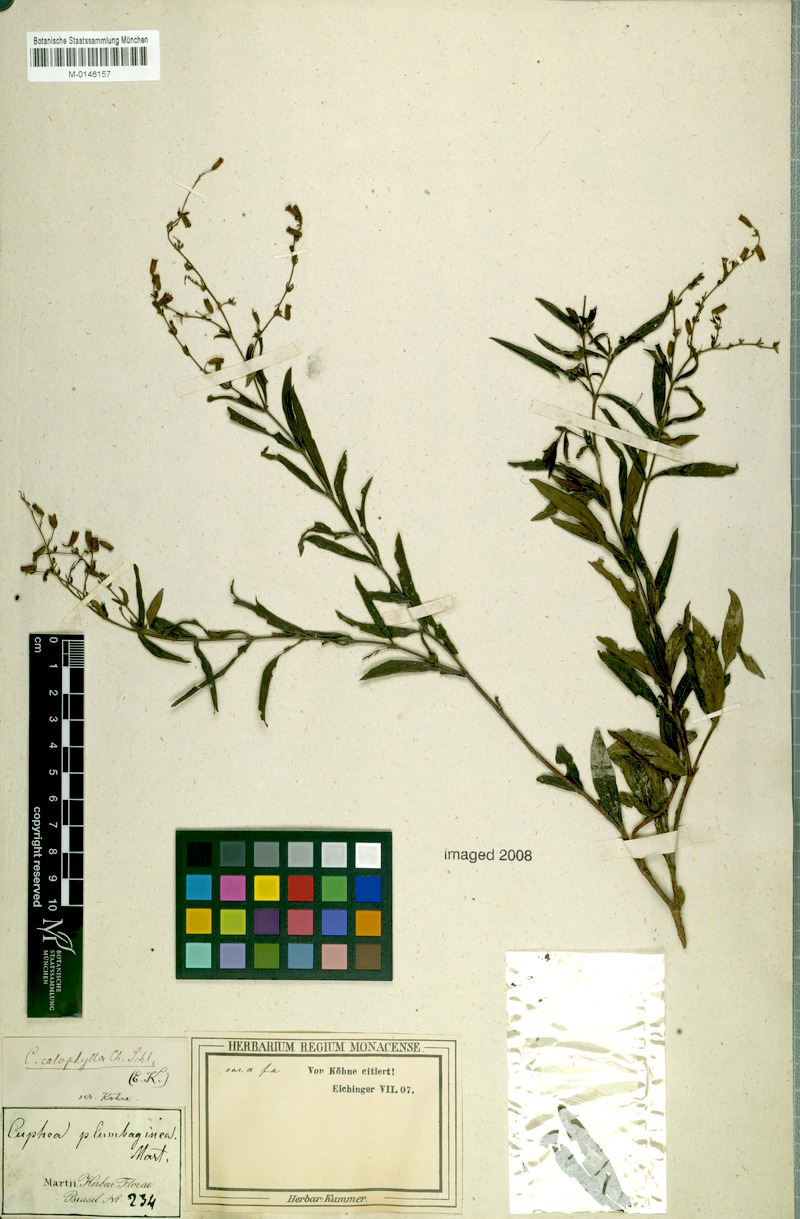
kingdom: Plantae
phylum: Tracheophyta
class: Magnoliopsida
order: Myrtales
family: Lythraceae
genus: Cuphea
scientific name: Cuphea calophylla
